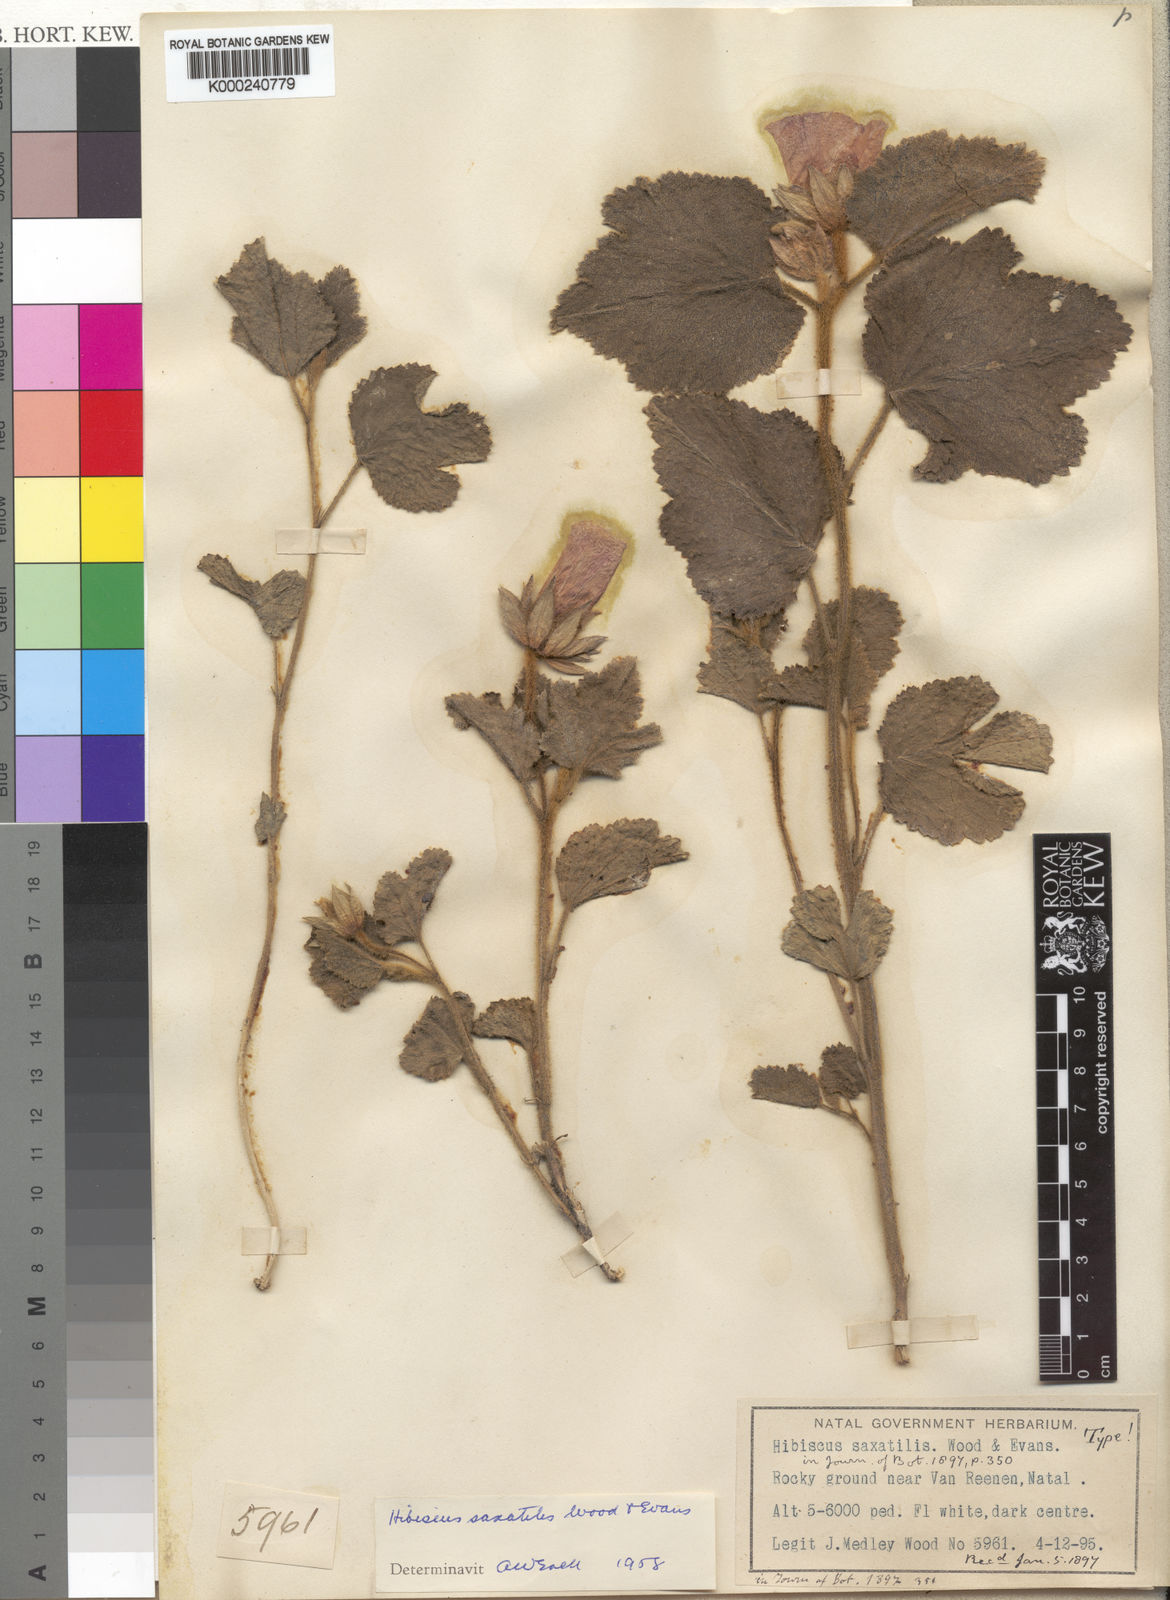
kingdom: Plantae
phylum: Tracheophyta
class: Magnoliopsida
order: Malvales
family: Malvaceae
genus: Hibiscus
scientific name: Hibiscus saxatilis
